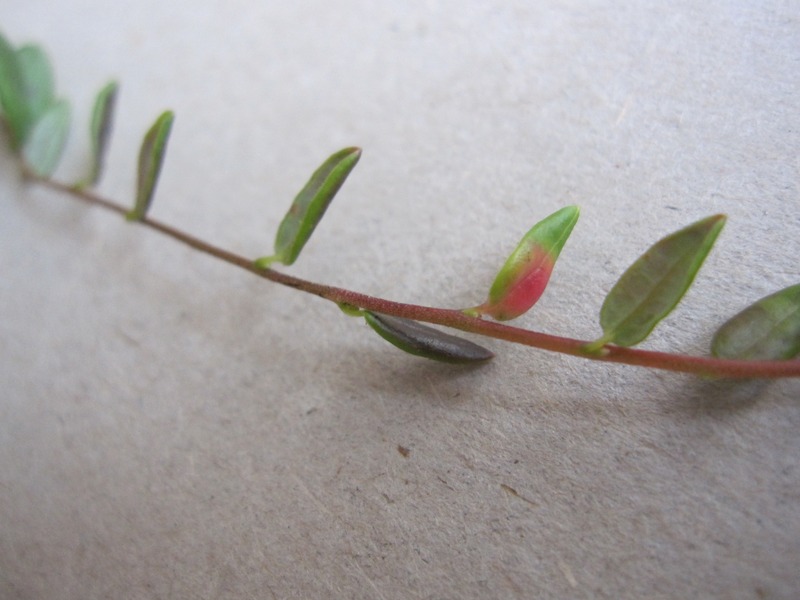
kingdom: Fungi
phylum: Basidiomycota
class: Exobasidiomycetes
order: Exobasidiales
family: Exobasidiaceae
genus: Exobasidium
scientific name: Exobasidium rostrupii
